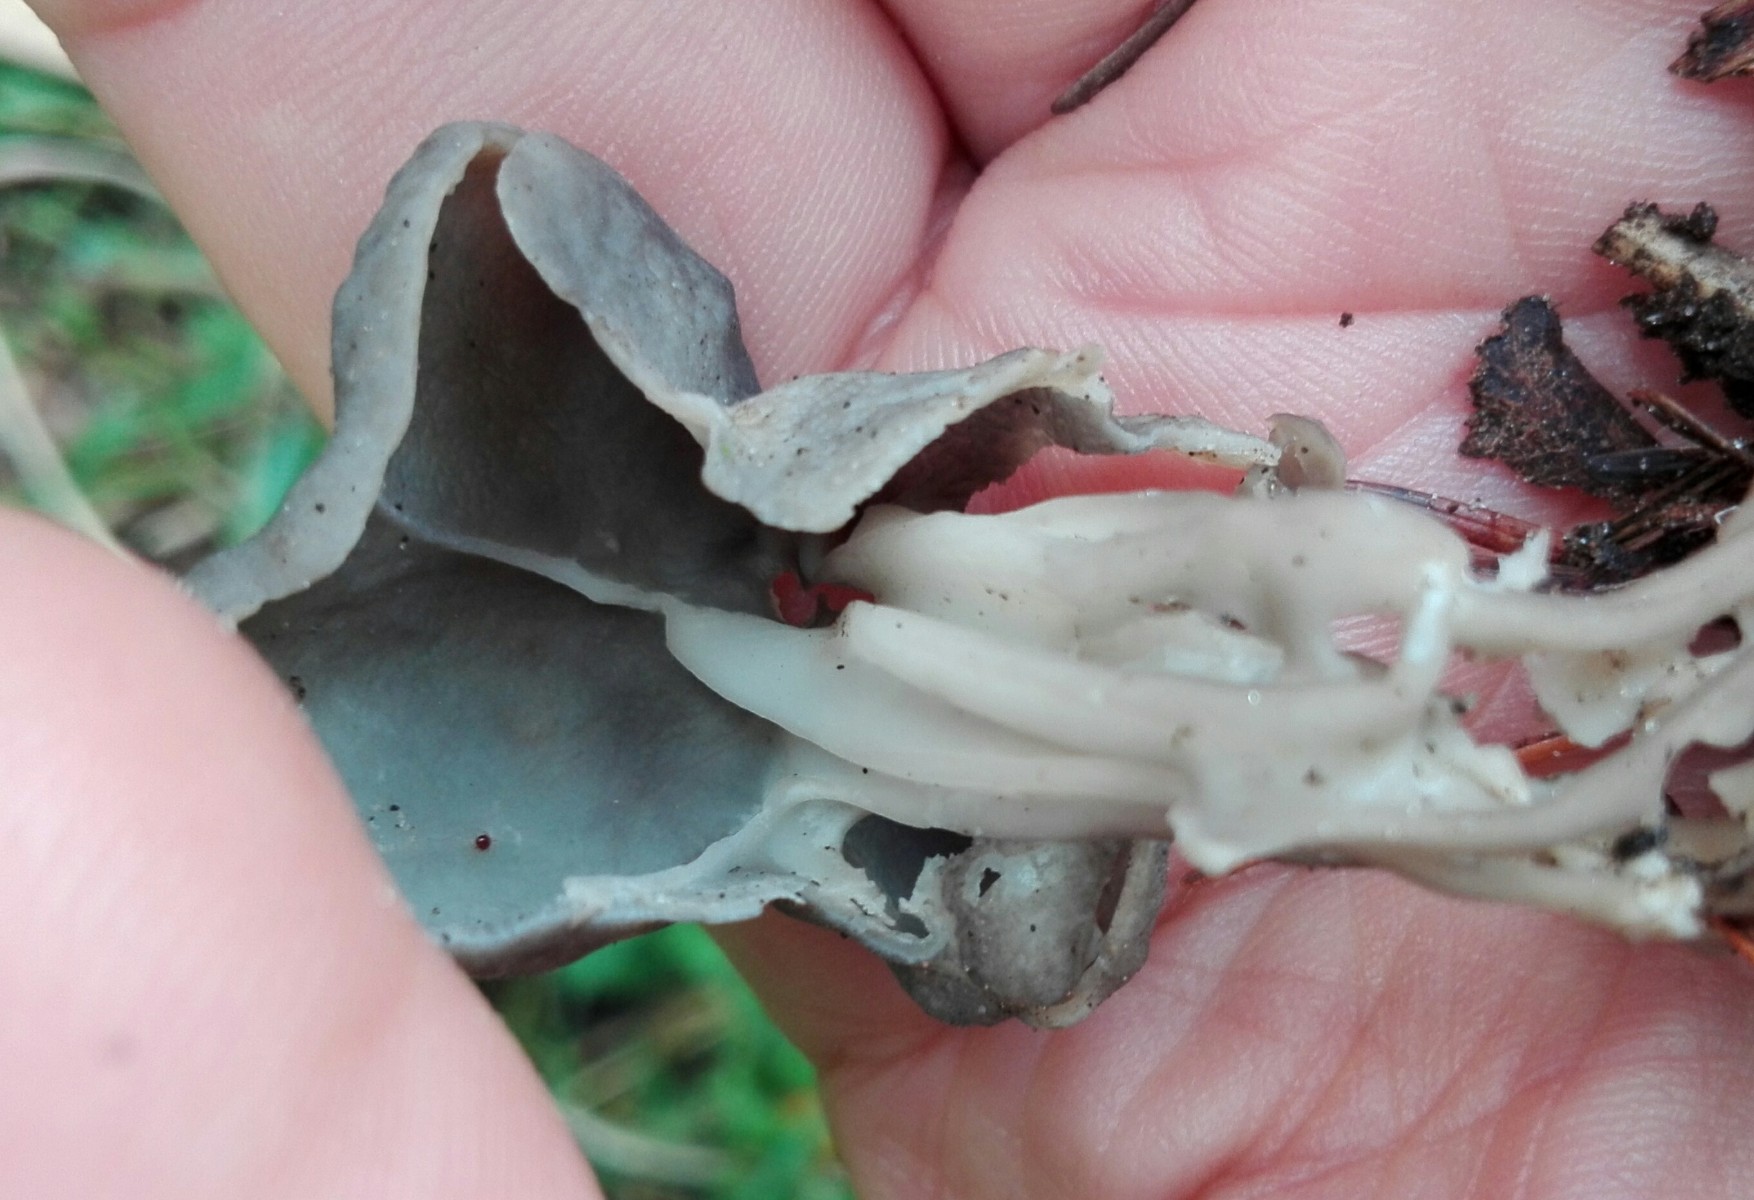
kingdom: Fungi
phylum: Ascomycota
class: Pezizomycetes
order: Pezizales
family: Helvellaceae
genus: Helvella
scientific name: Helvella lacunosa
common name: grubet foldhat
